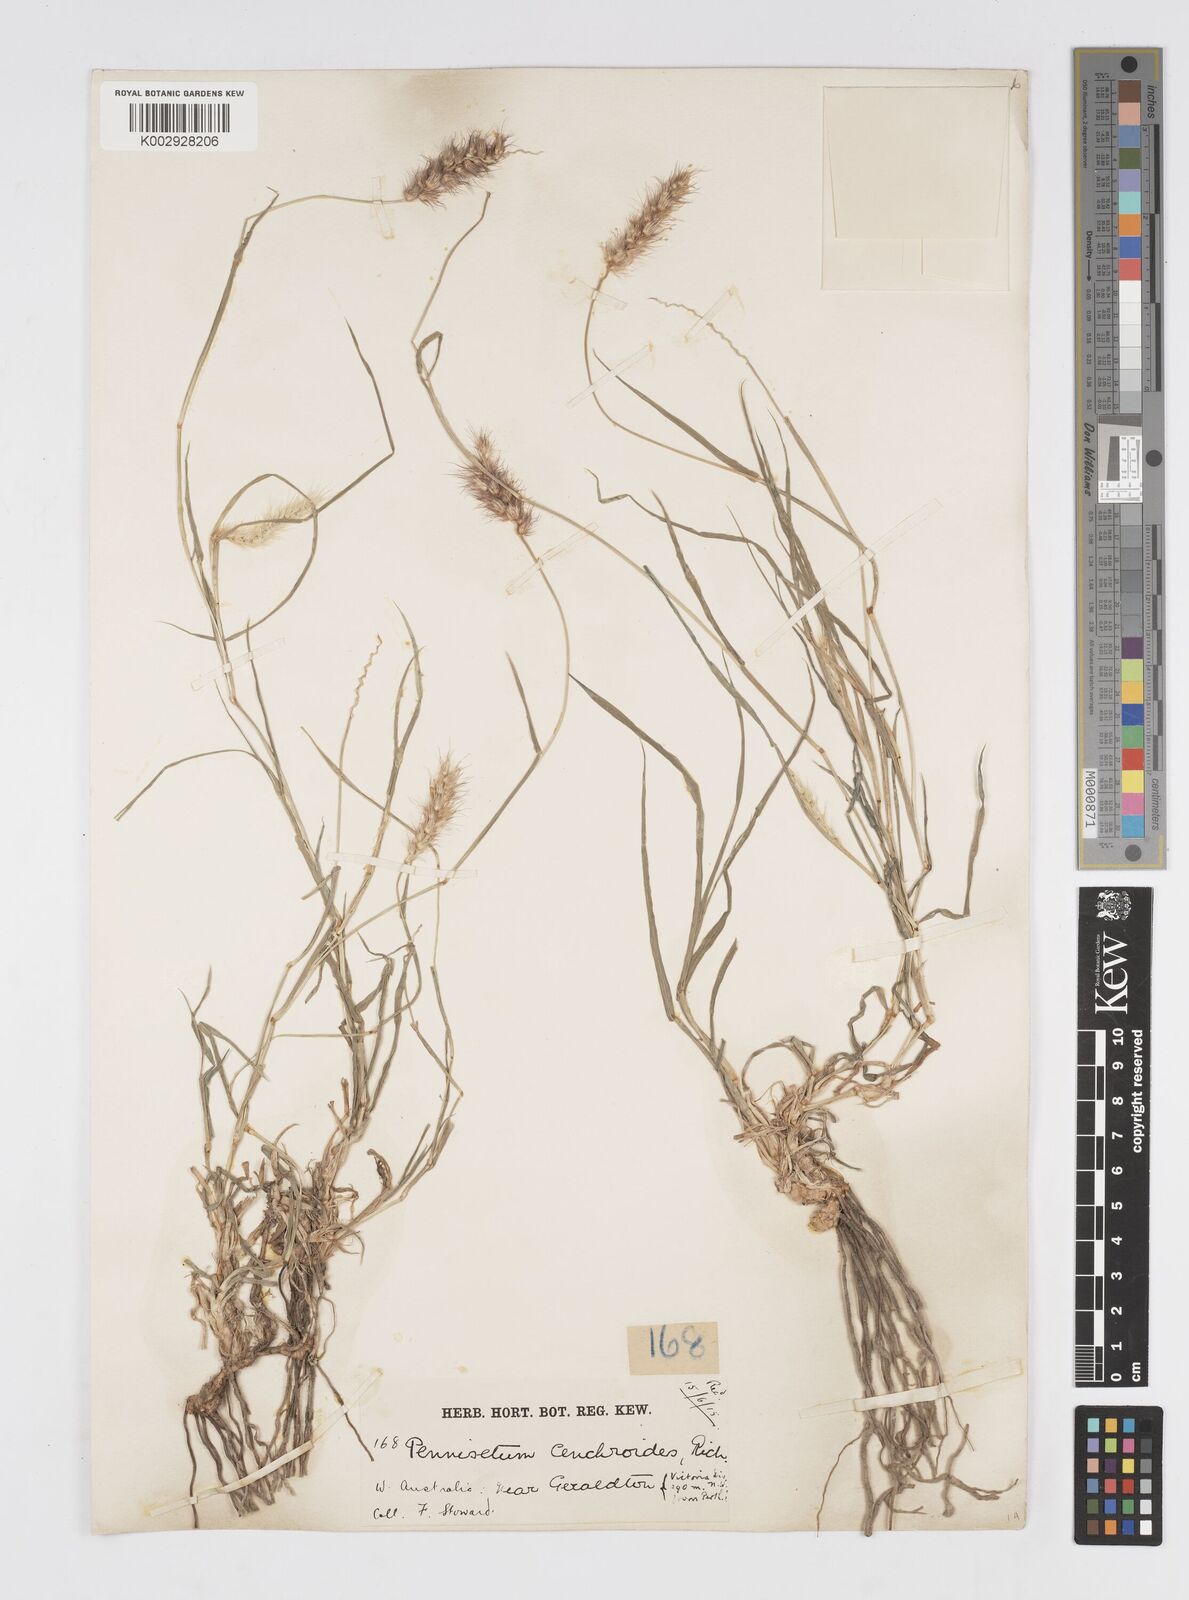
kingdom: Plantae
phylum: Tracheophyta
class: Liliopsida
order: Poales
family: Poaceae
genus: Cenchrus
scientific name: Cenchrus pennisetiformis
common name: Cloncurry
